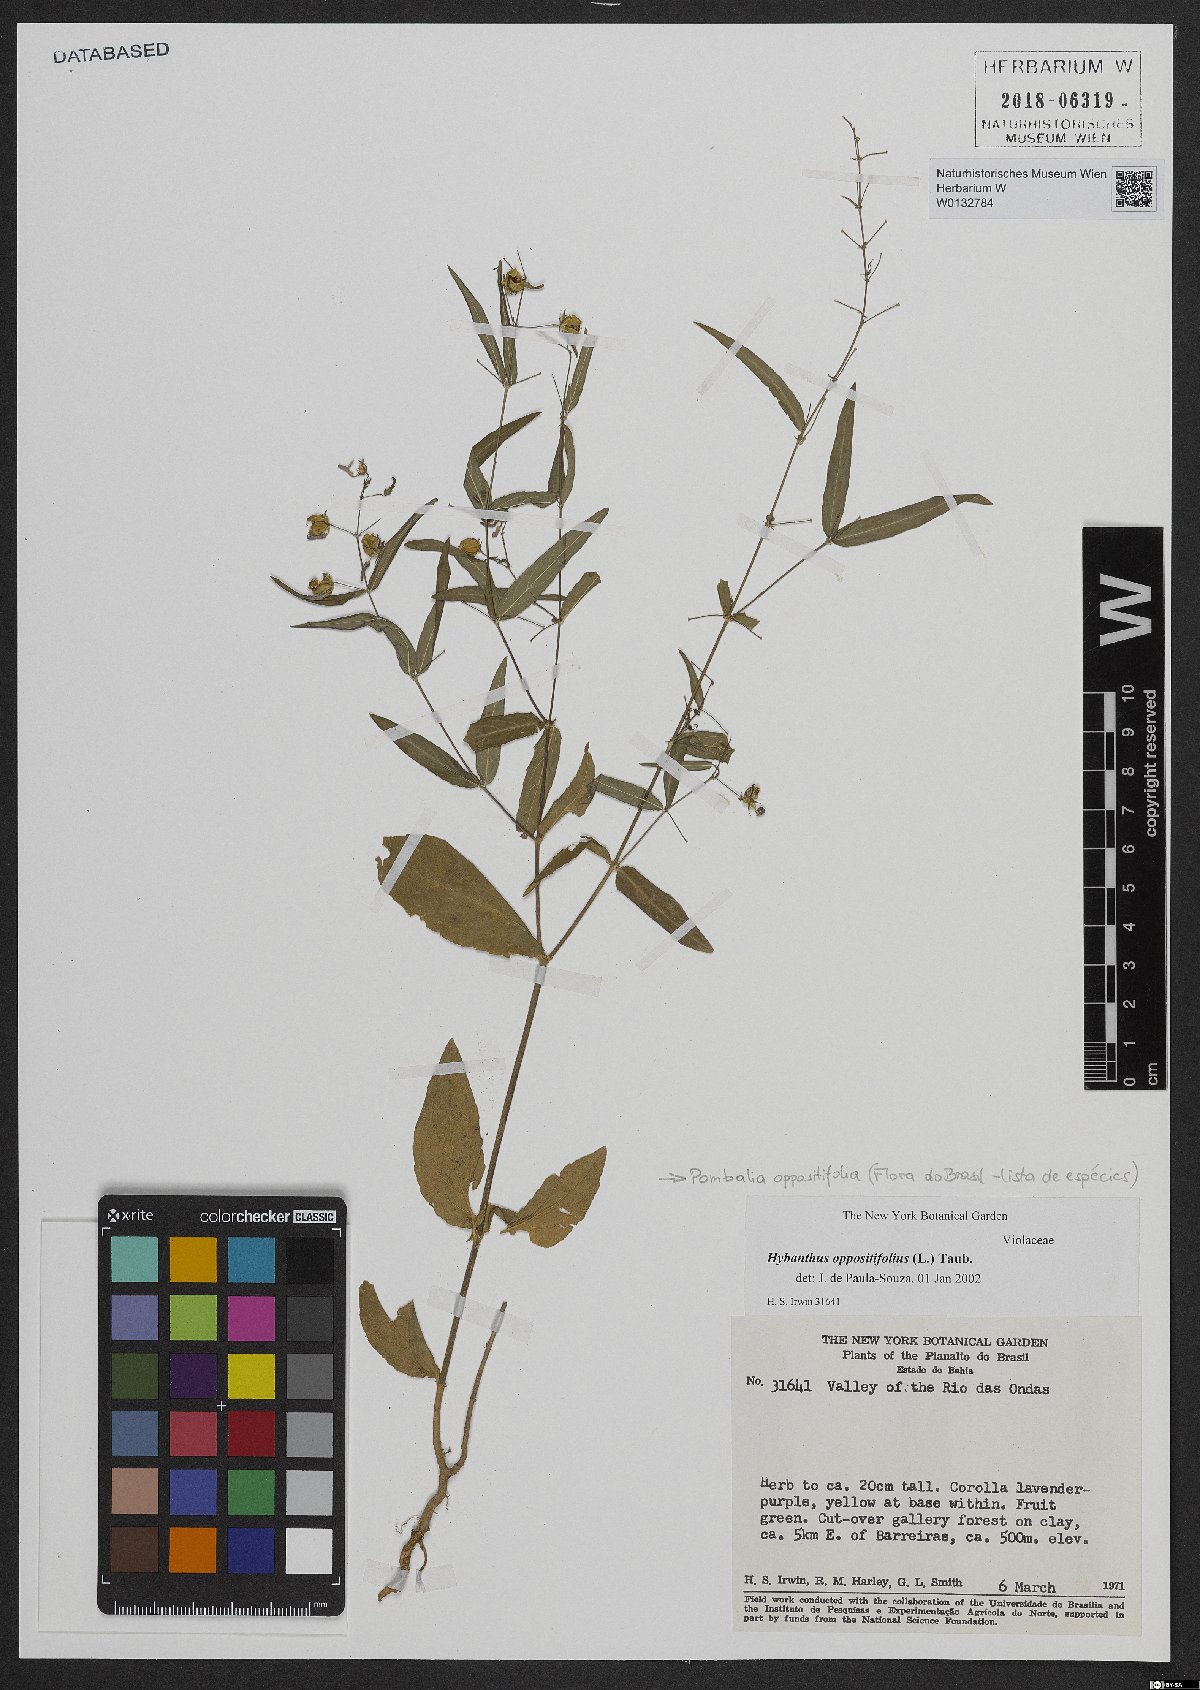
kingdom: Plantae
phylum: Tracheophyta
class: Magnoliopsida
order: Malpighiales
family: Violaceae
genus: Pombalia
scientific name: Pombalia oppositifolia
